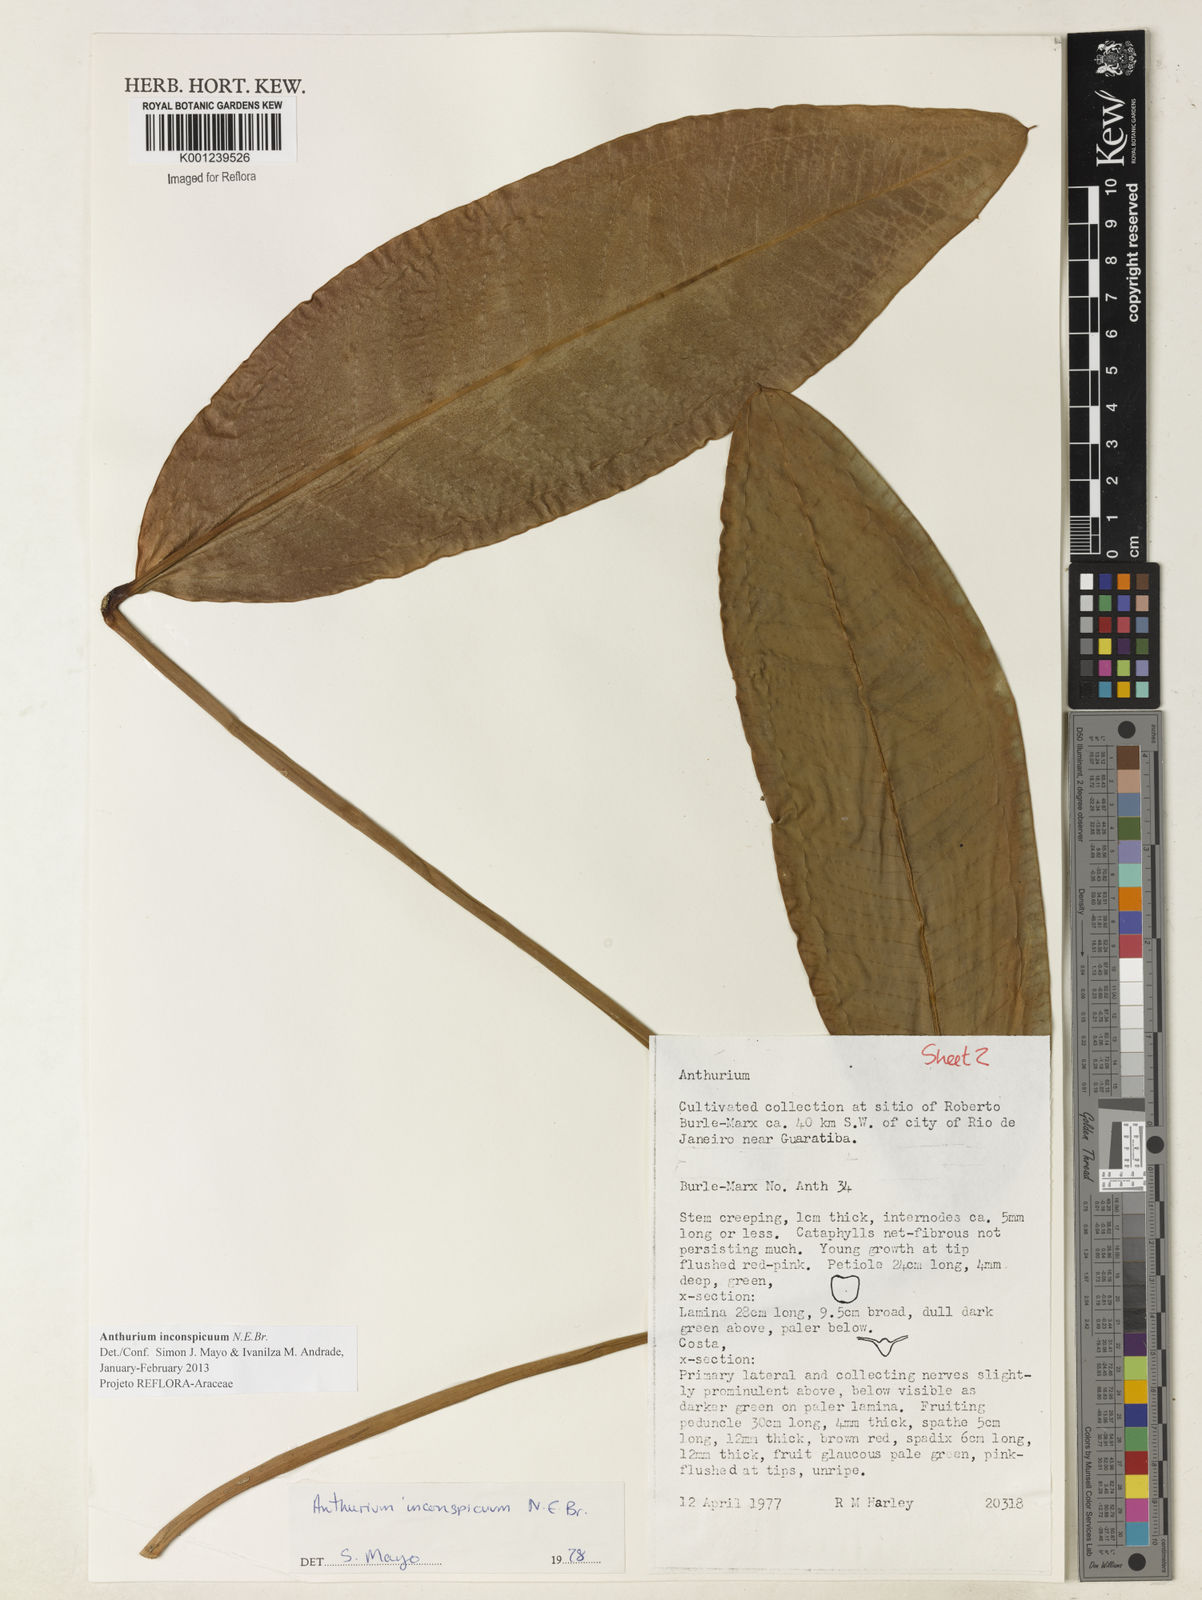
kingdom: Plantae
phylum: Tracheophyta
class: Liliopsida
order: Alismatales
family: Araceae
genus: Anthurium
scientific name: Anthurium inconspicuum
